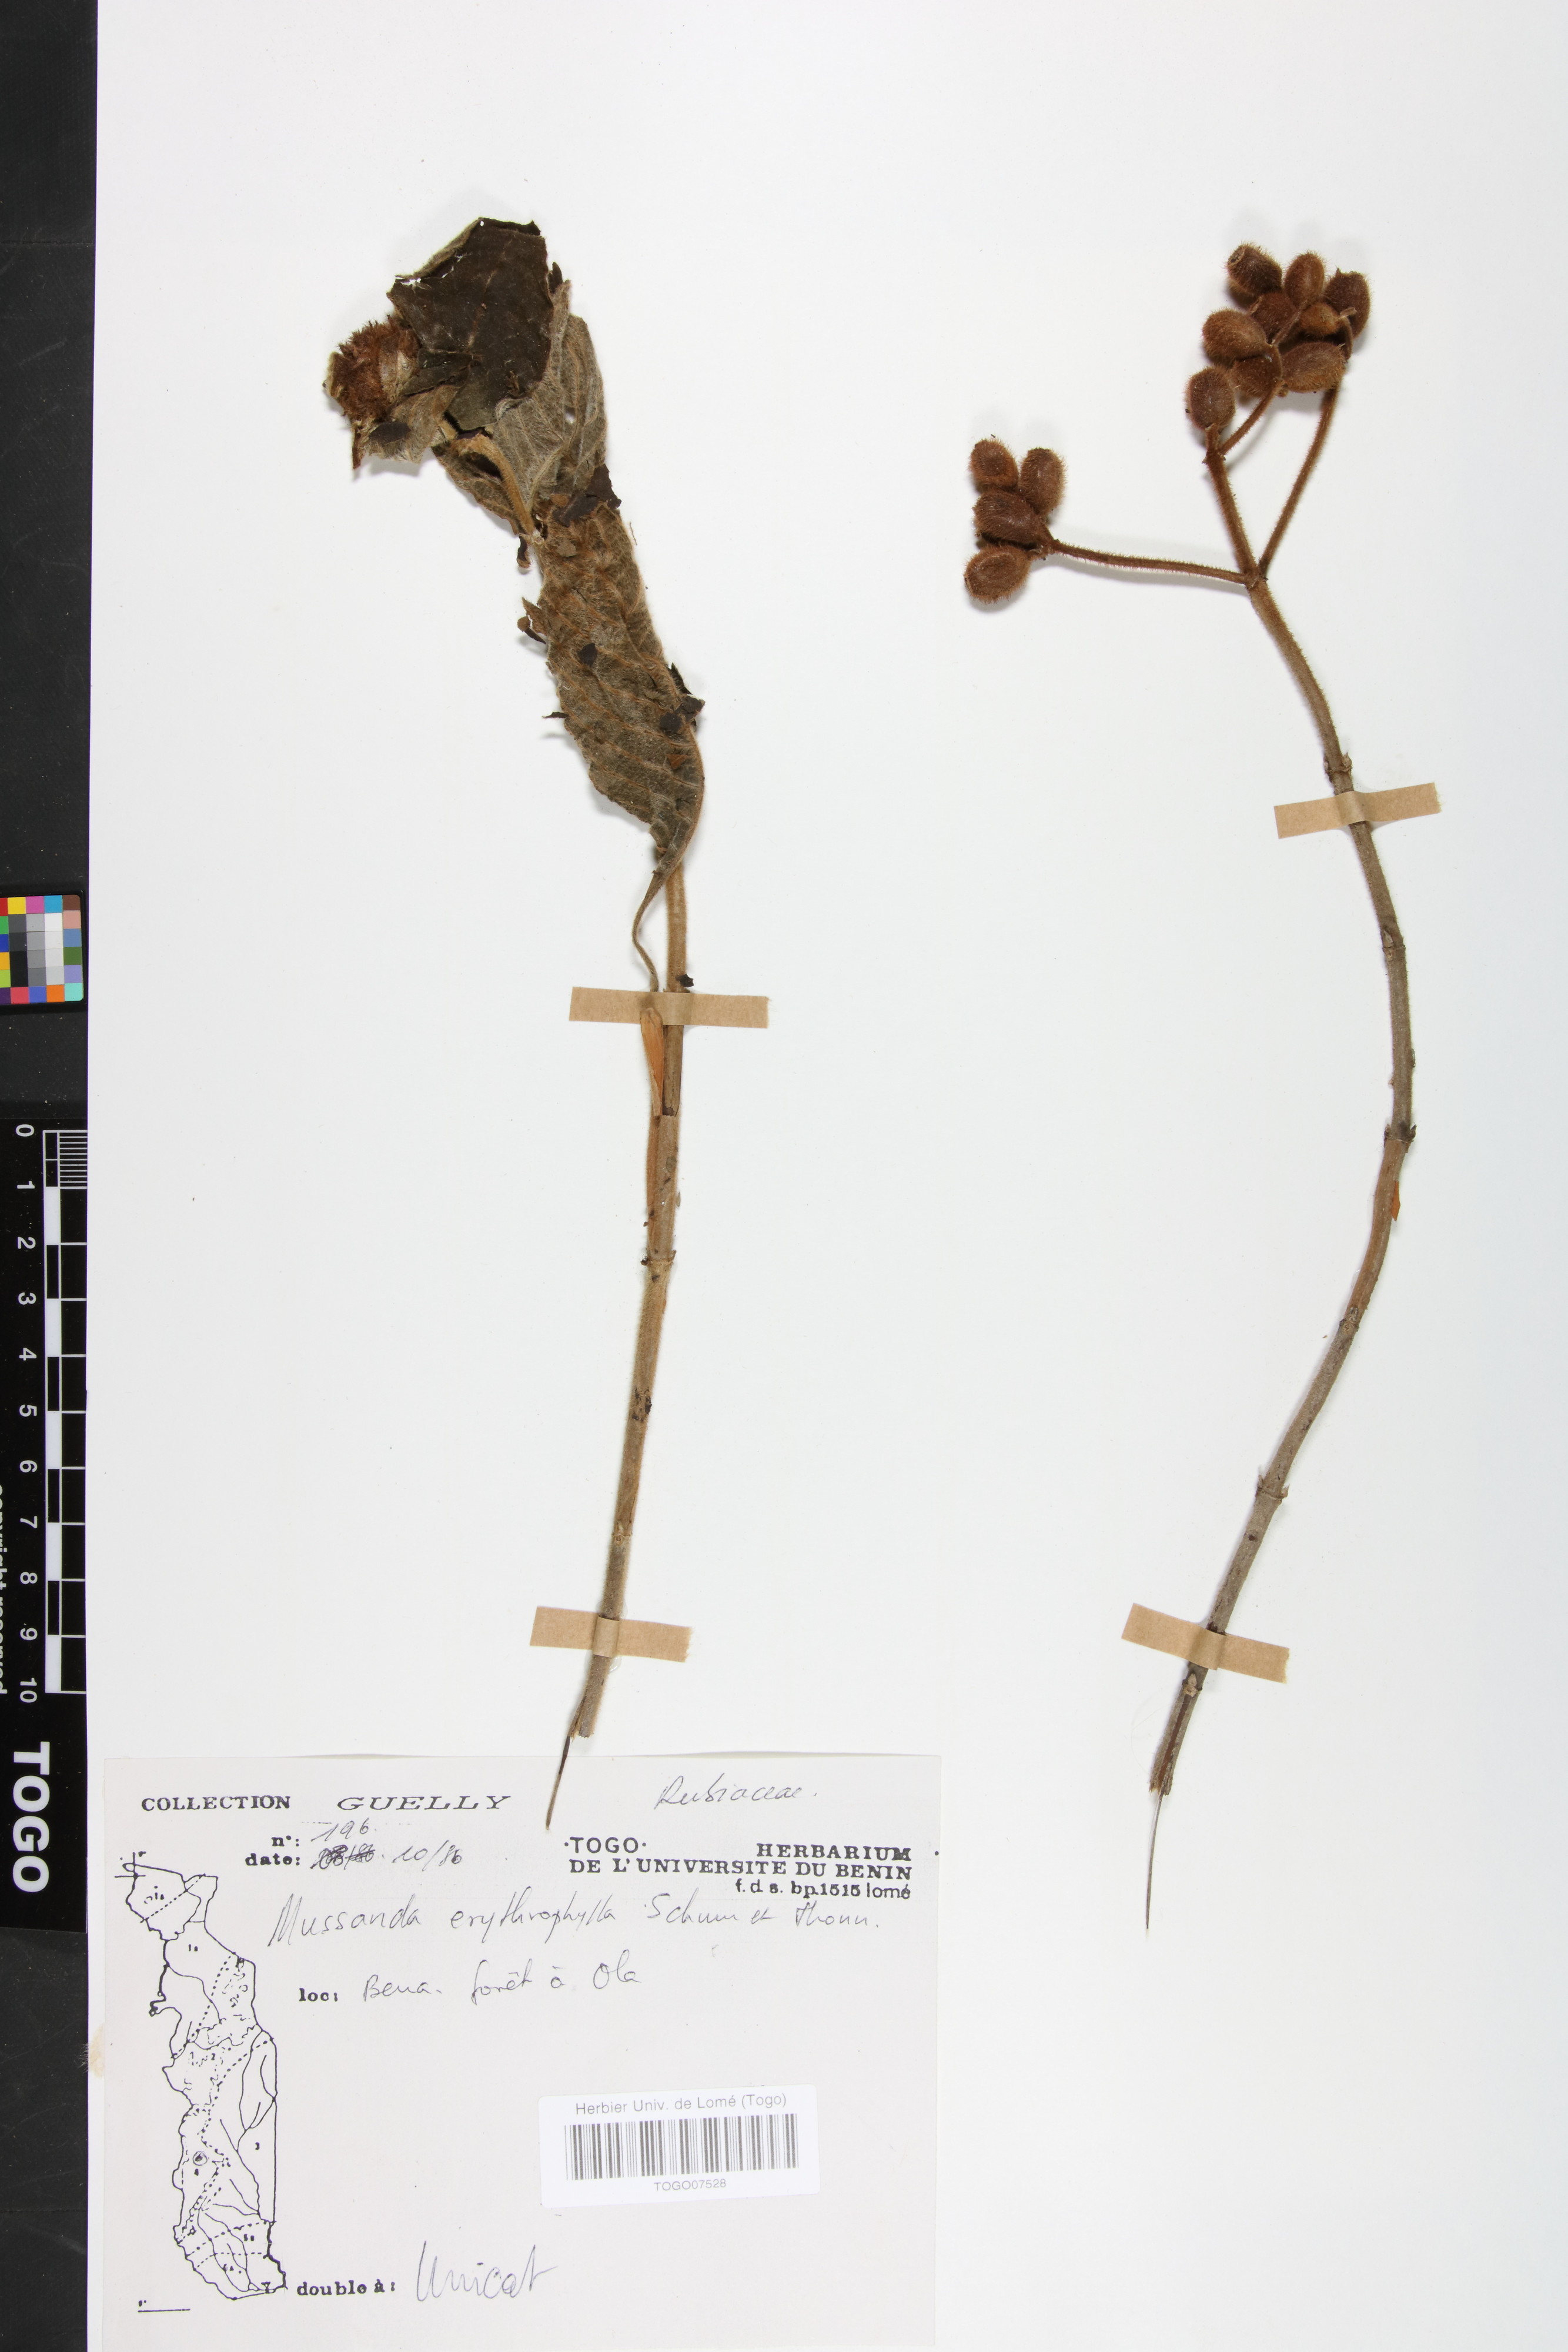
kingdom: Plantae
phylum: Tracheophyta
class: Magnoliopsida
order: Gentianales
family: Rubiaceae
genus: Mussaenda
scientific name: Mussaenda erythrophylla
